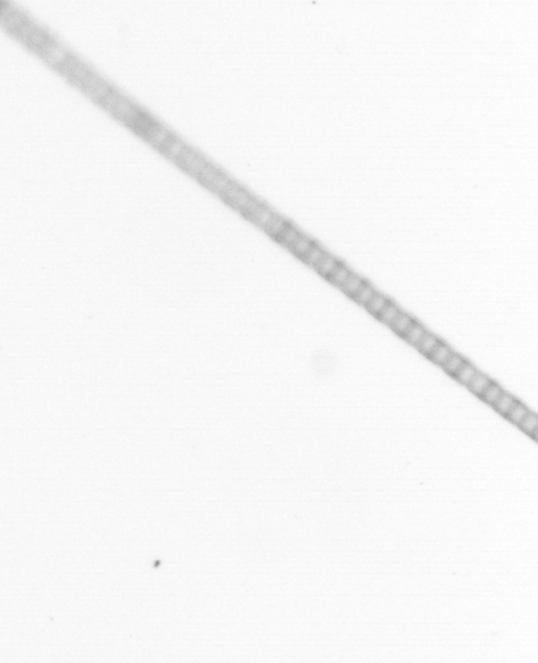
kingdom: Chromista
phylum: Ochrophyta
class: Bacillariophyceae
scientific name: Bacillariophyceae
